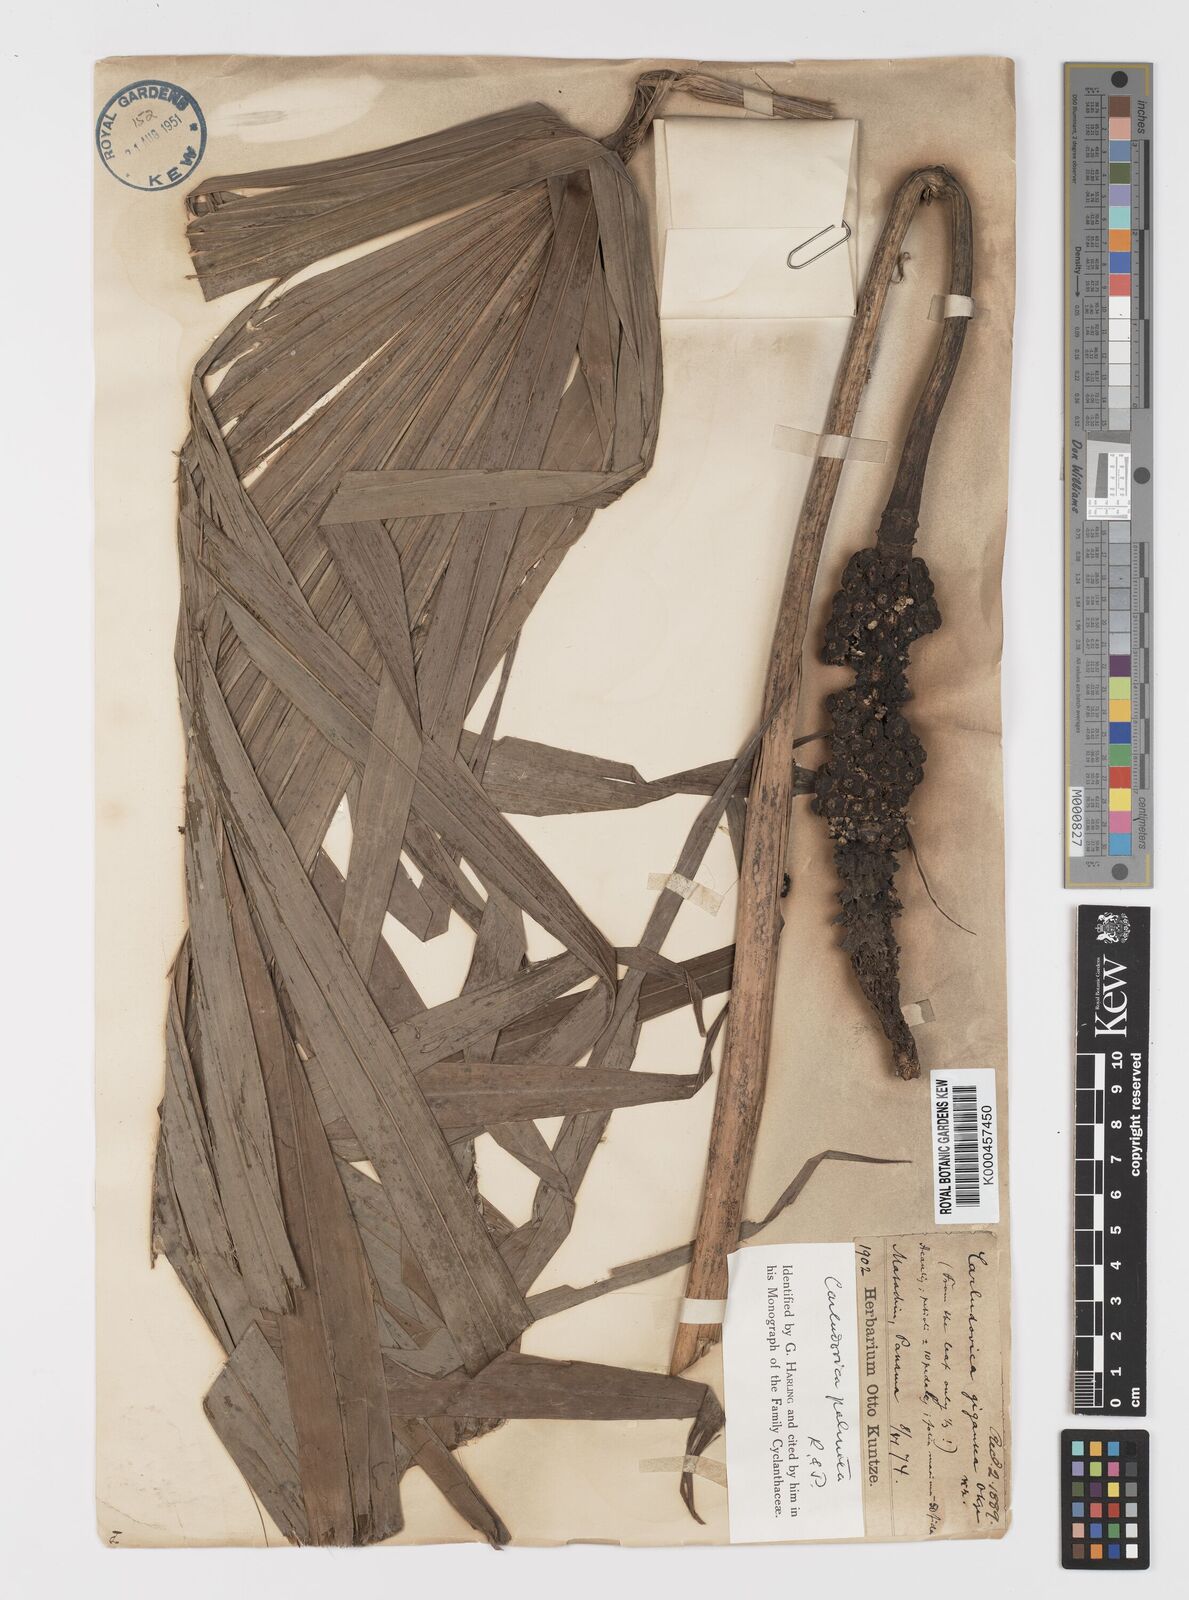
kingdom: Plantae
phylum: Tracheophyta
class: Liliopsida
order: Pandanales
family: Cyclanthaceae
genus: Carludovica
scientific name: Carludovica palmata
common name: Panama hat plant
